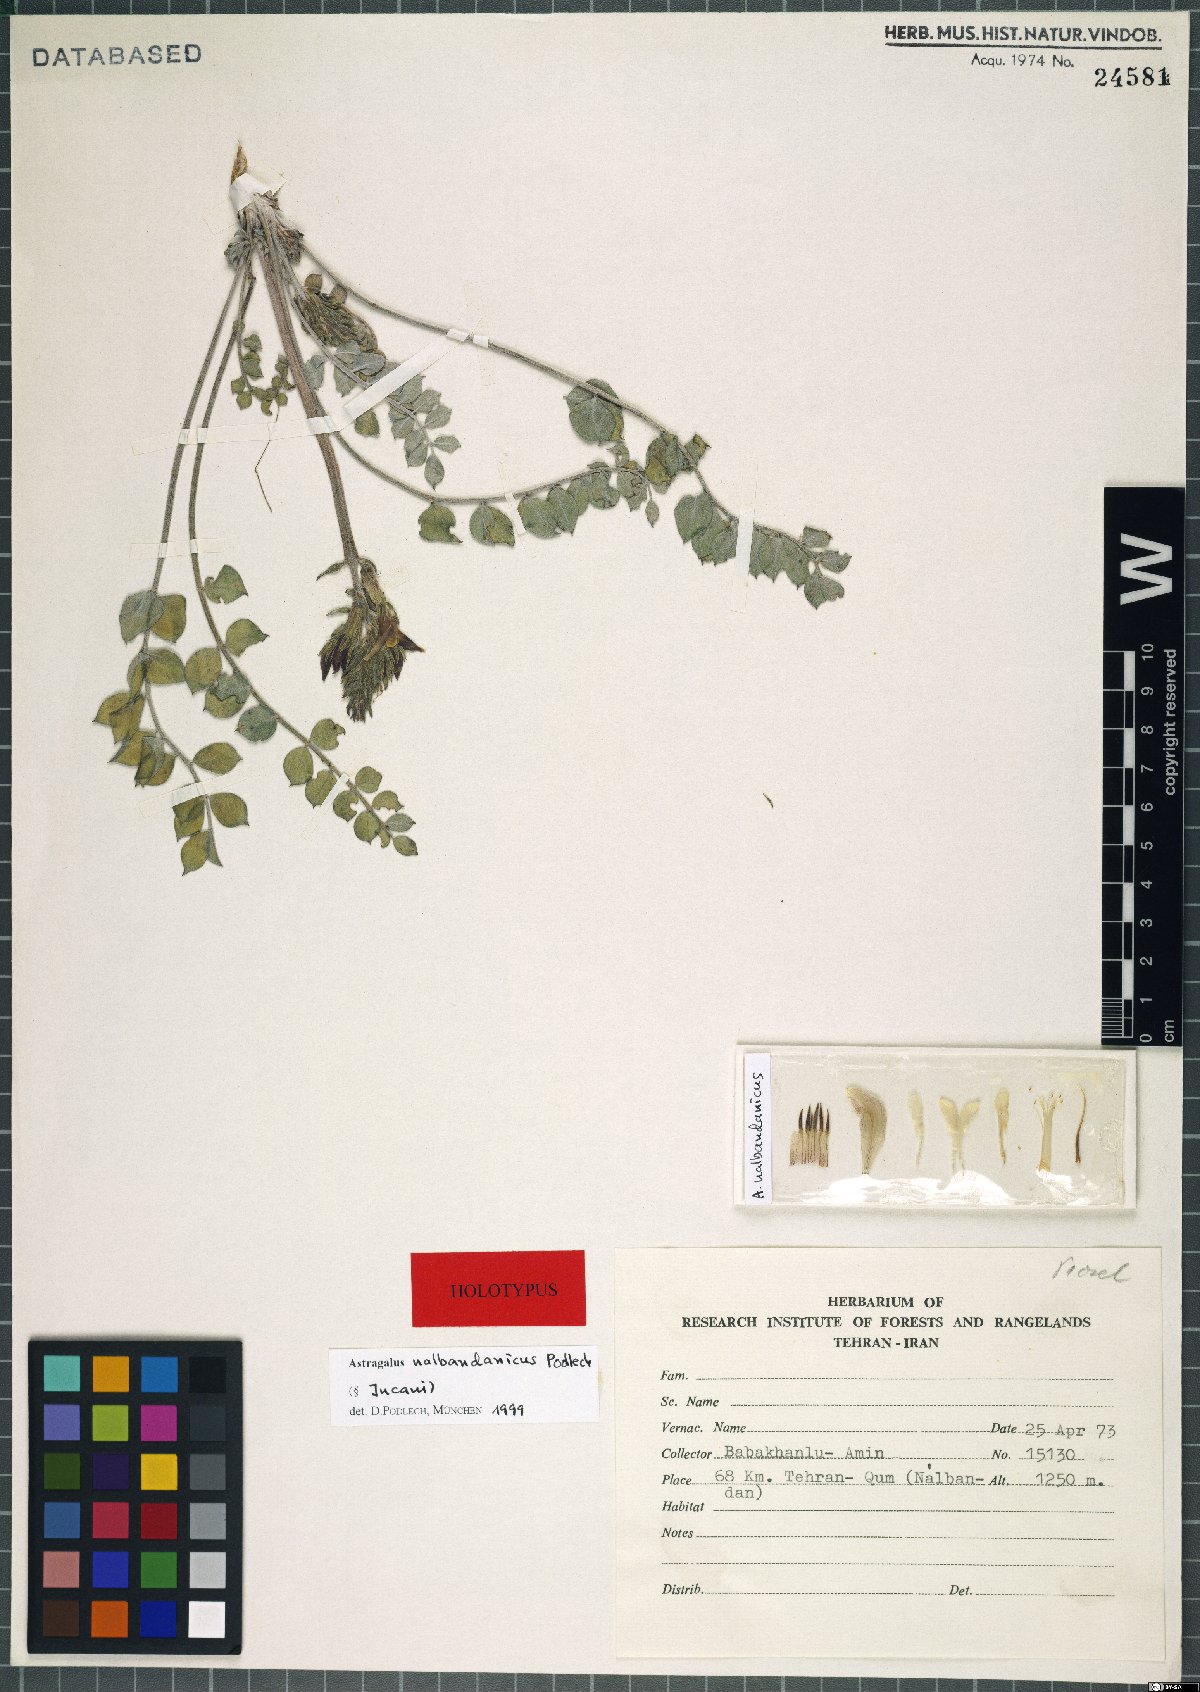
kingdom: Plantae
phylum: Tracheophyta
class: Magnoliopsida
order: Fabales
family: Fabaceae
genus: Astragalus
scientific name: Astragalus nalbandanicus
